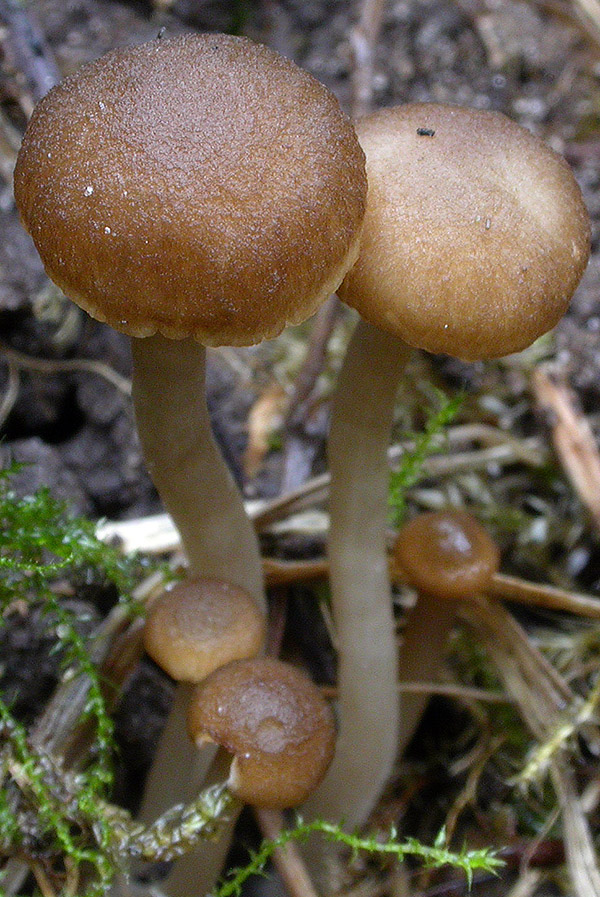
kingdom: Fungi
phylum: Basidiomycota
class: Agaricomycetes
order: Agaricales
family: Clavariaceae
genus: Camarophyllopsis
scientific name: Camarophyllopsis atrovelutina
